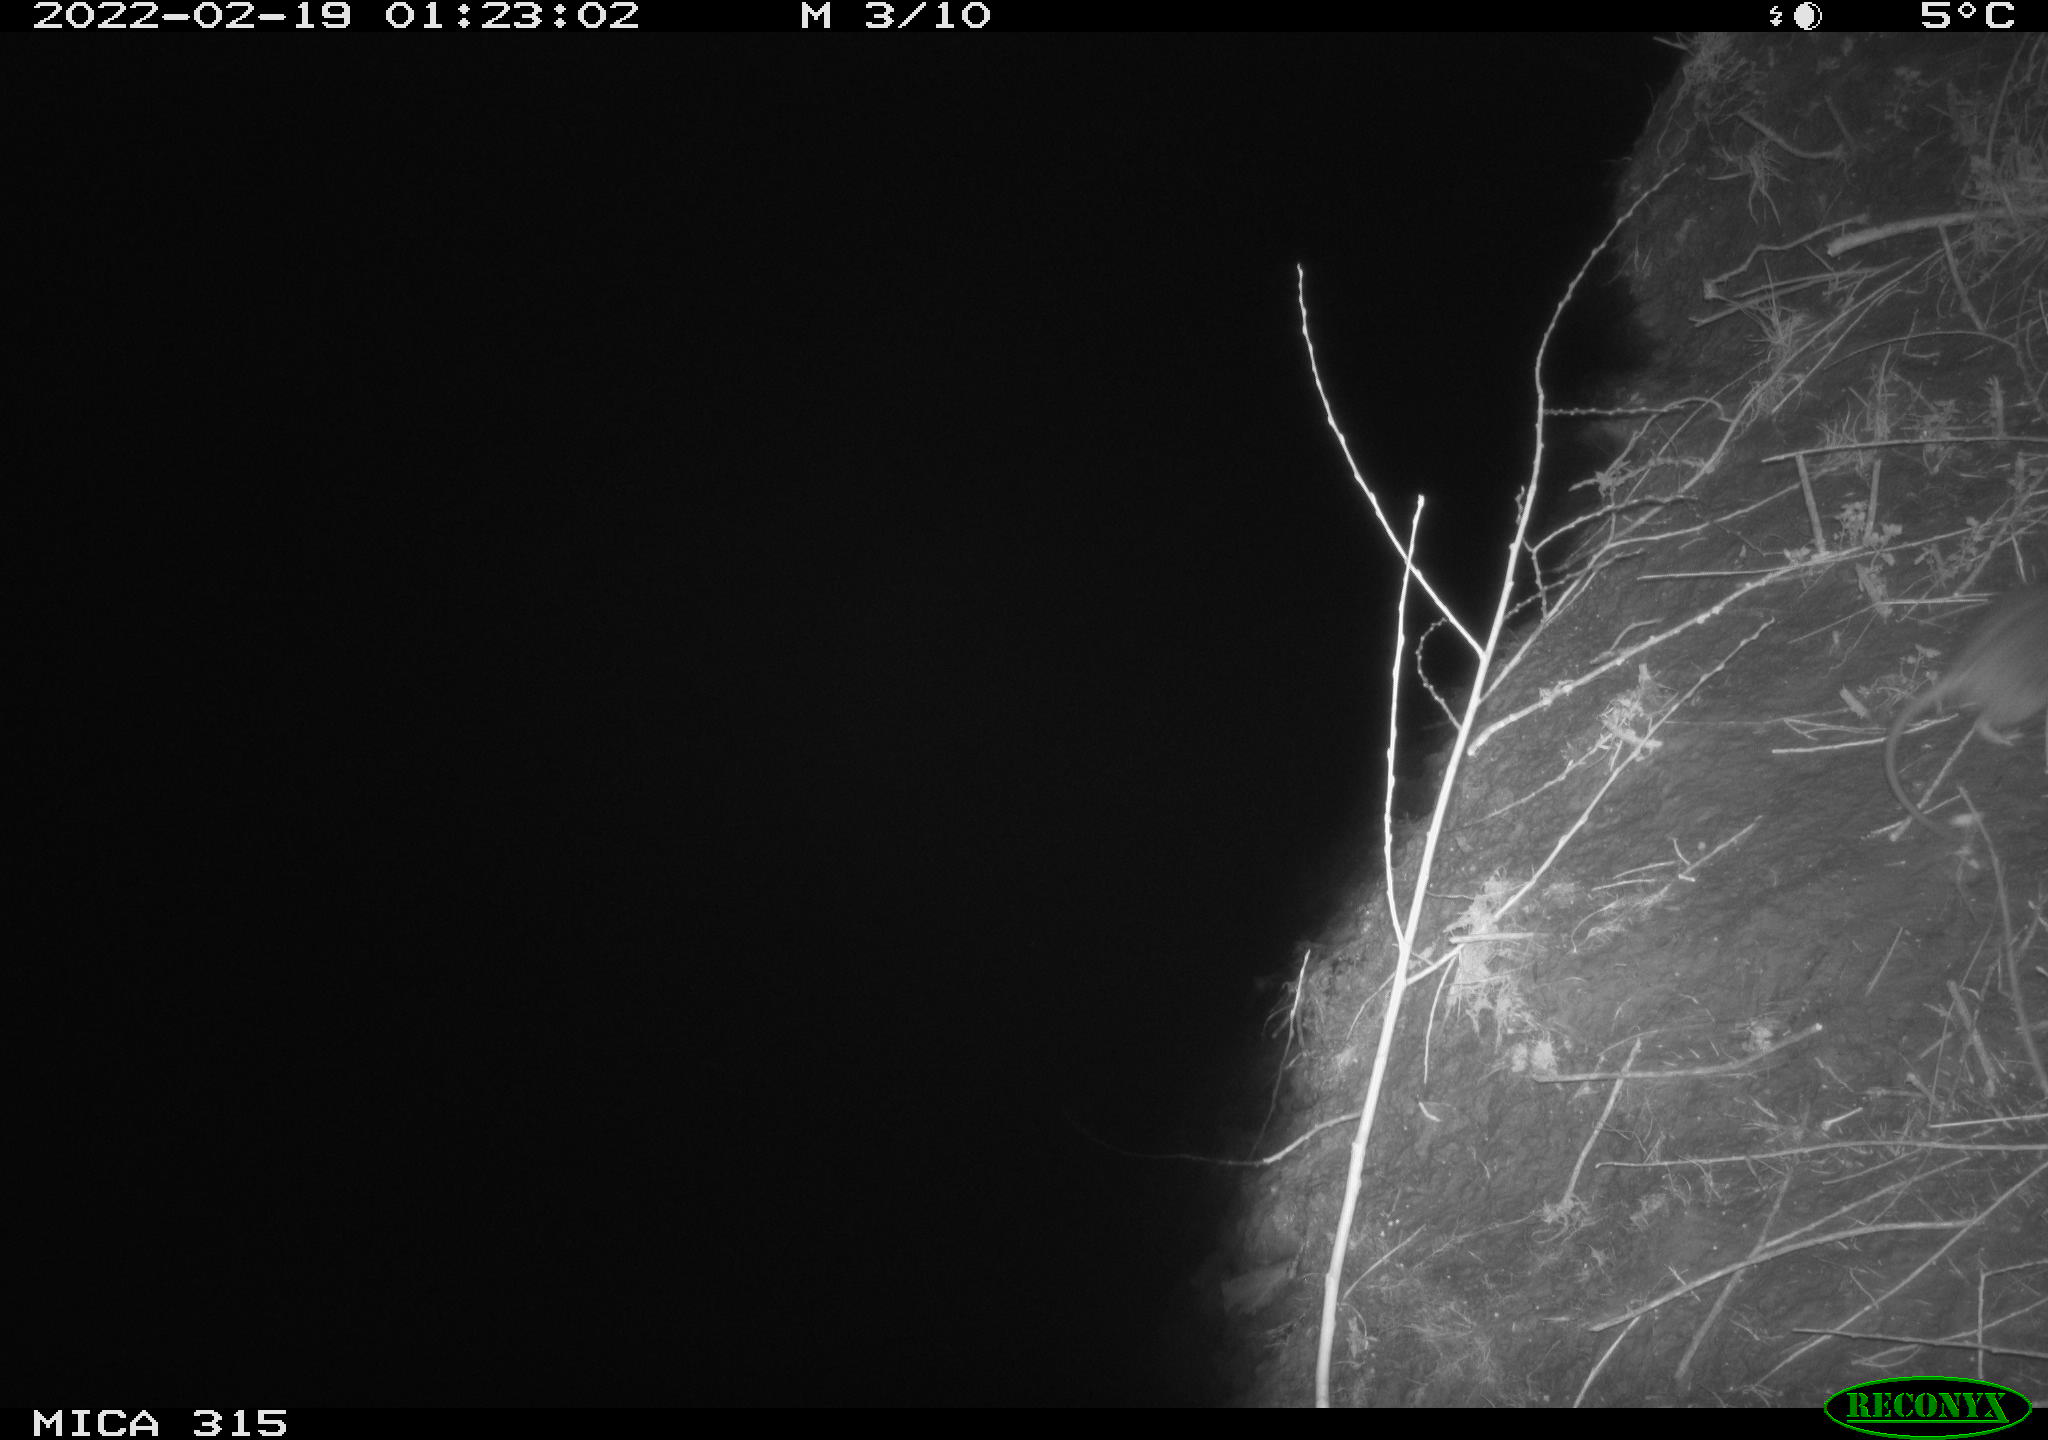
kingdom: Animalia
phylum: Chordata
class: Mammalia
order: Rodentia
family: Muridae
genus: Rattus
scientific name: Rattus norvegicus
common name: Brown rat
